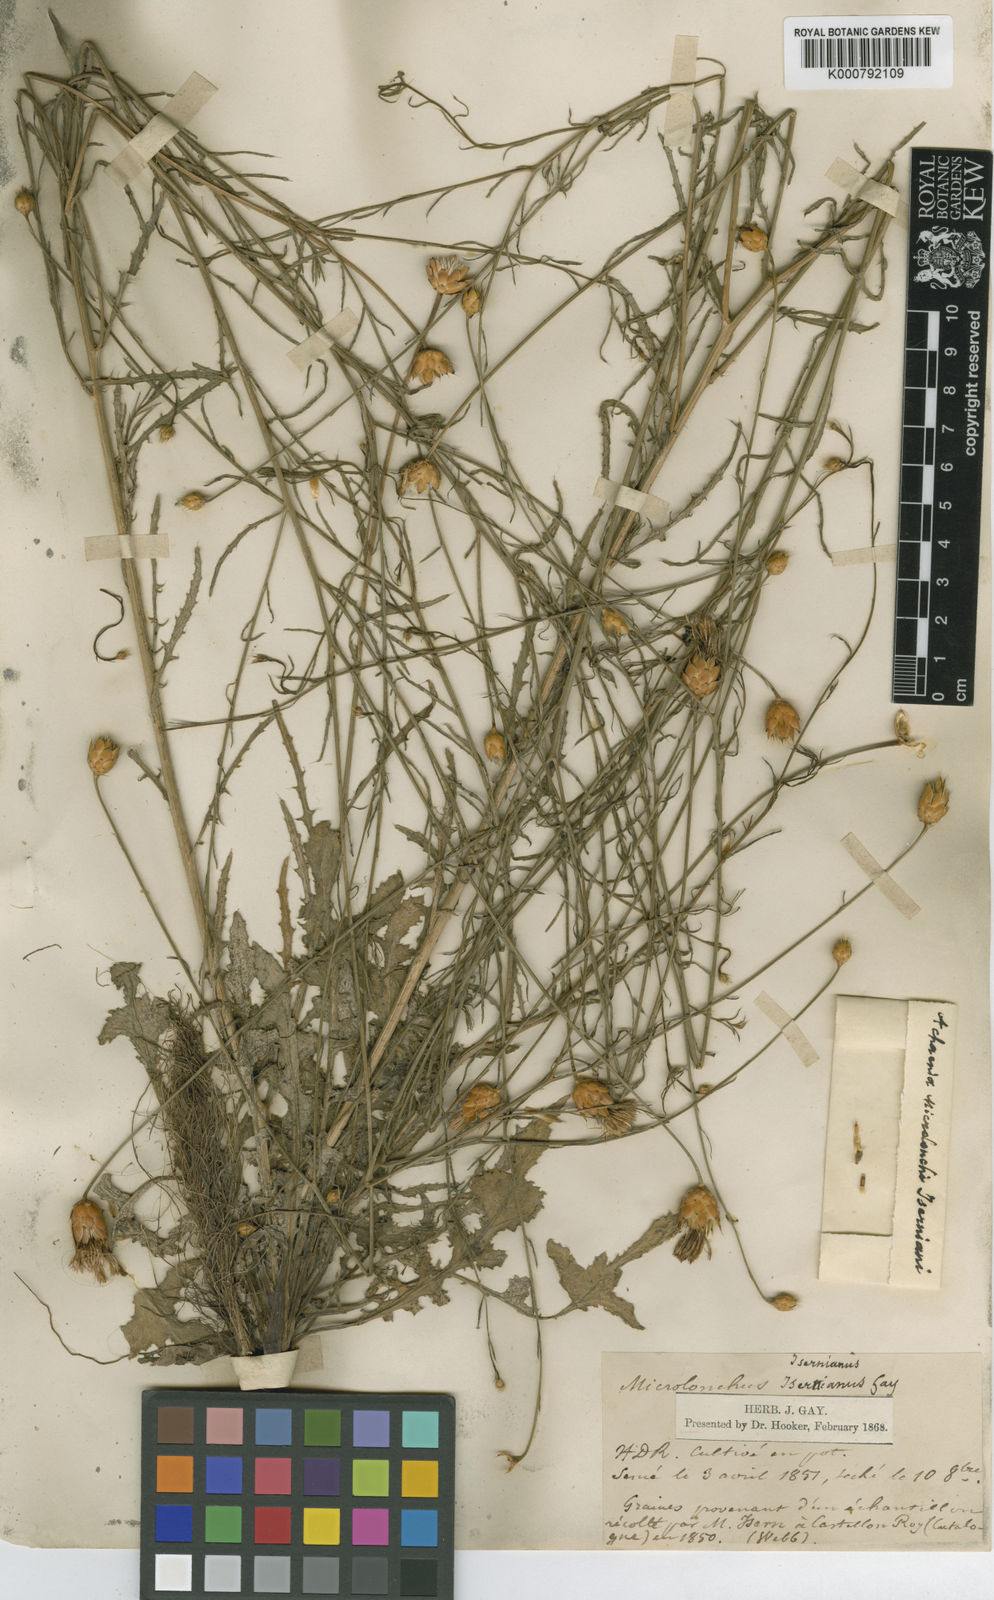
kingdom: Plantae
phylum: Tracheophyta
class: Magnoliopsida
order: Asterales
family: Asteraceae
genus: Mantisalca
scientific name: Mantisalca salmantica
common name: Dagger flower
